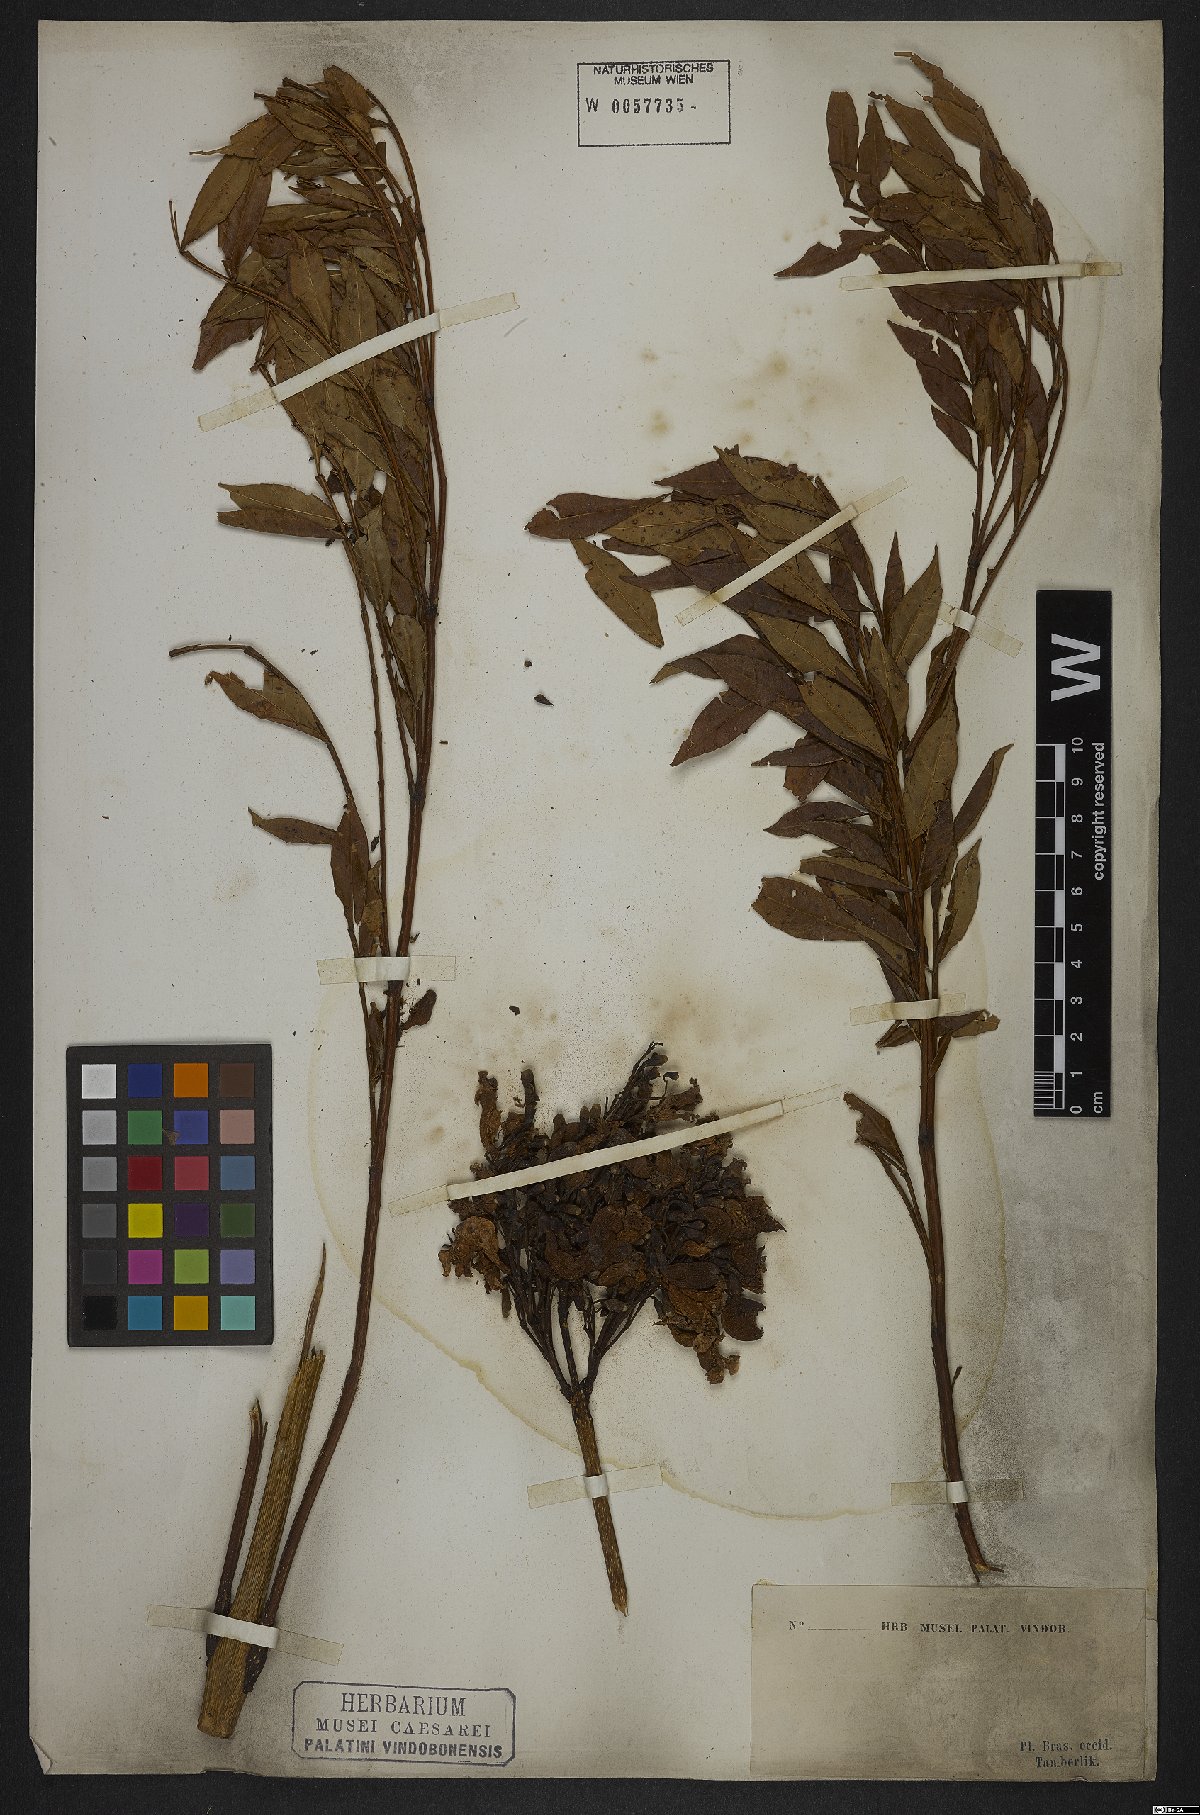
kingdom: Plantae
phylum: Tracheophyta
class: Magnoliopsida
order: Lamiales
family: Bignoniaceae
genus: Jacaranda
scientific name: Jacaranda caroba
